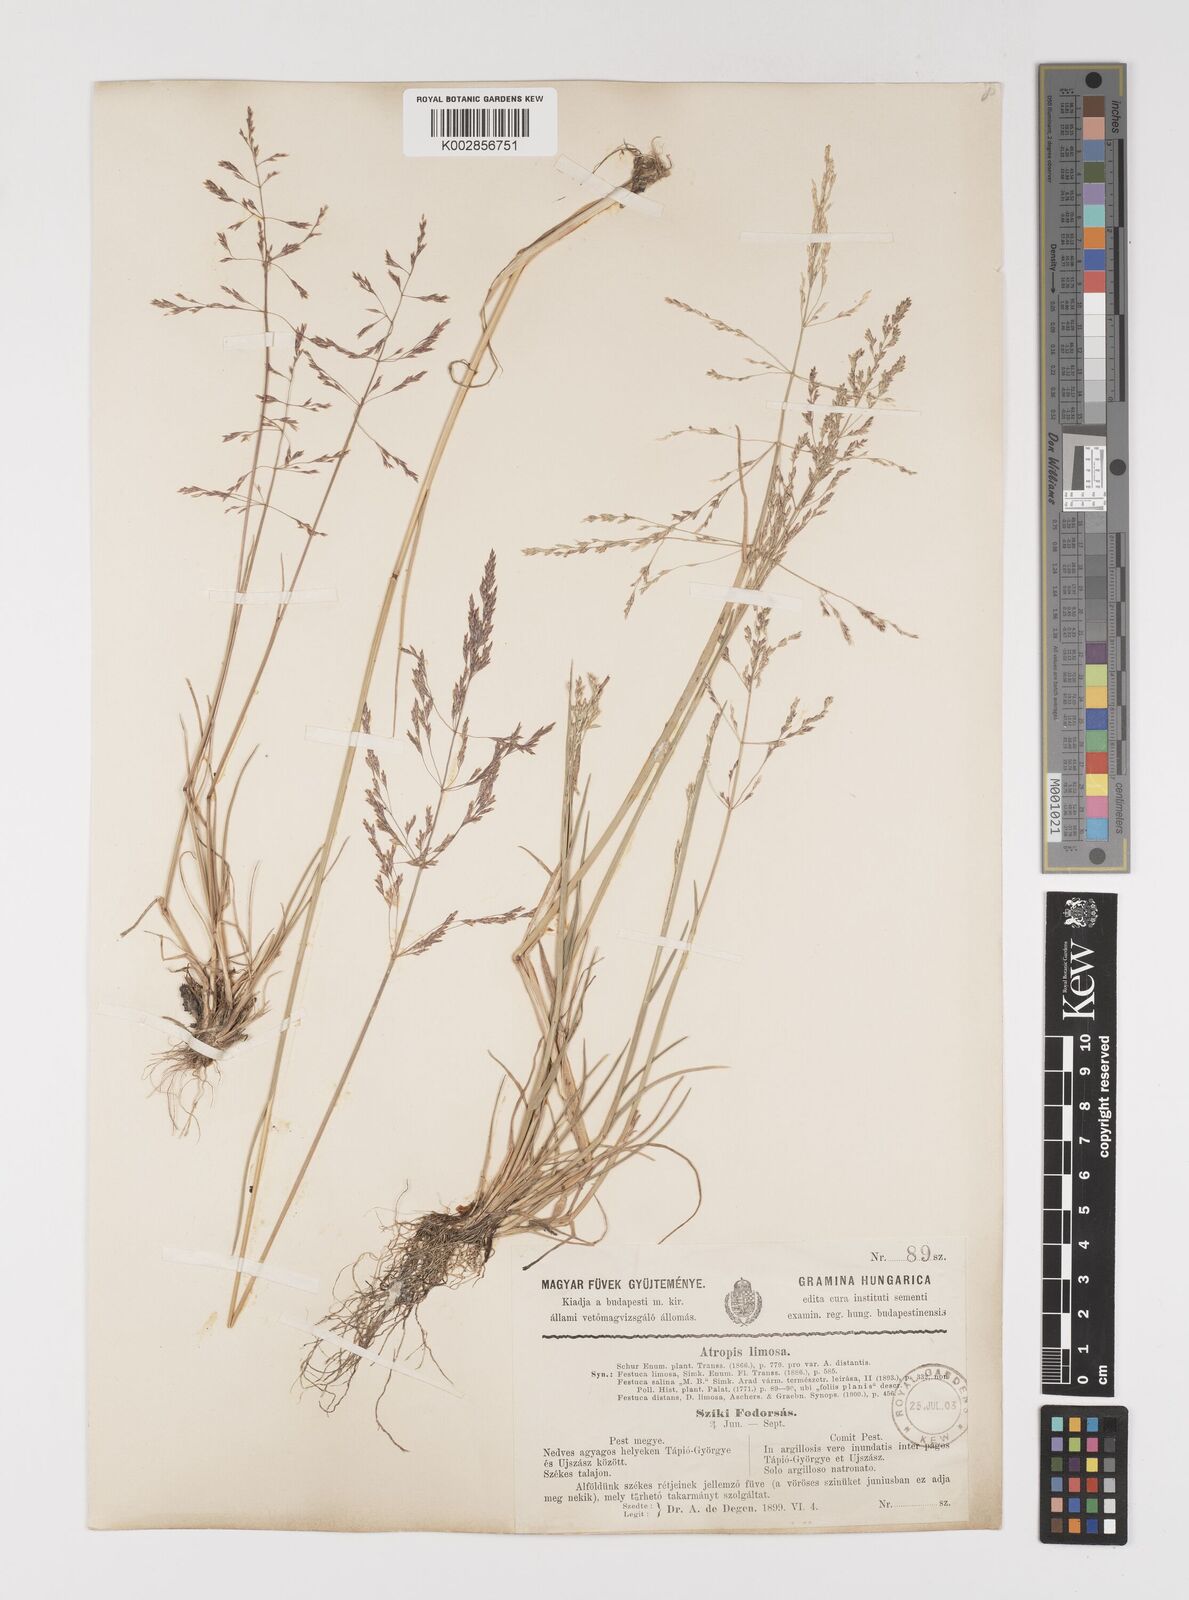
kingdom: Plantae
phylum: Tracheophyta
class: Liliopsida
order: Poales
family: Poaceae
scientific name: Poaceae
